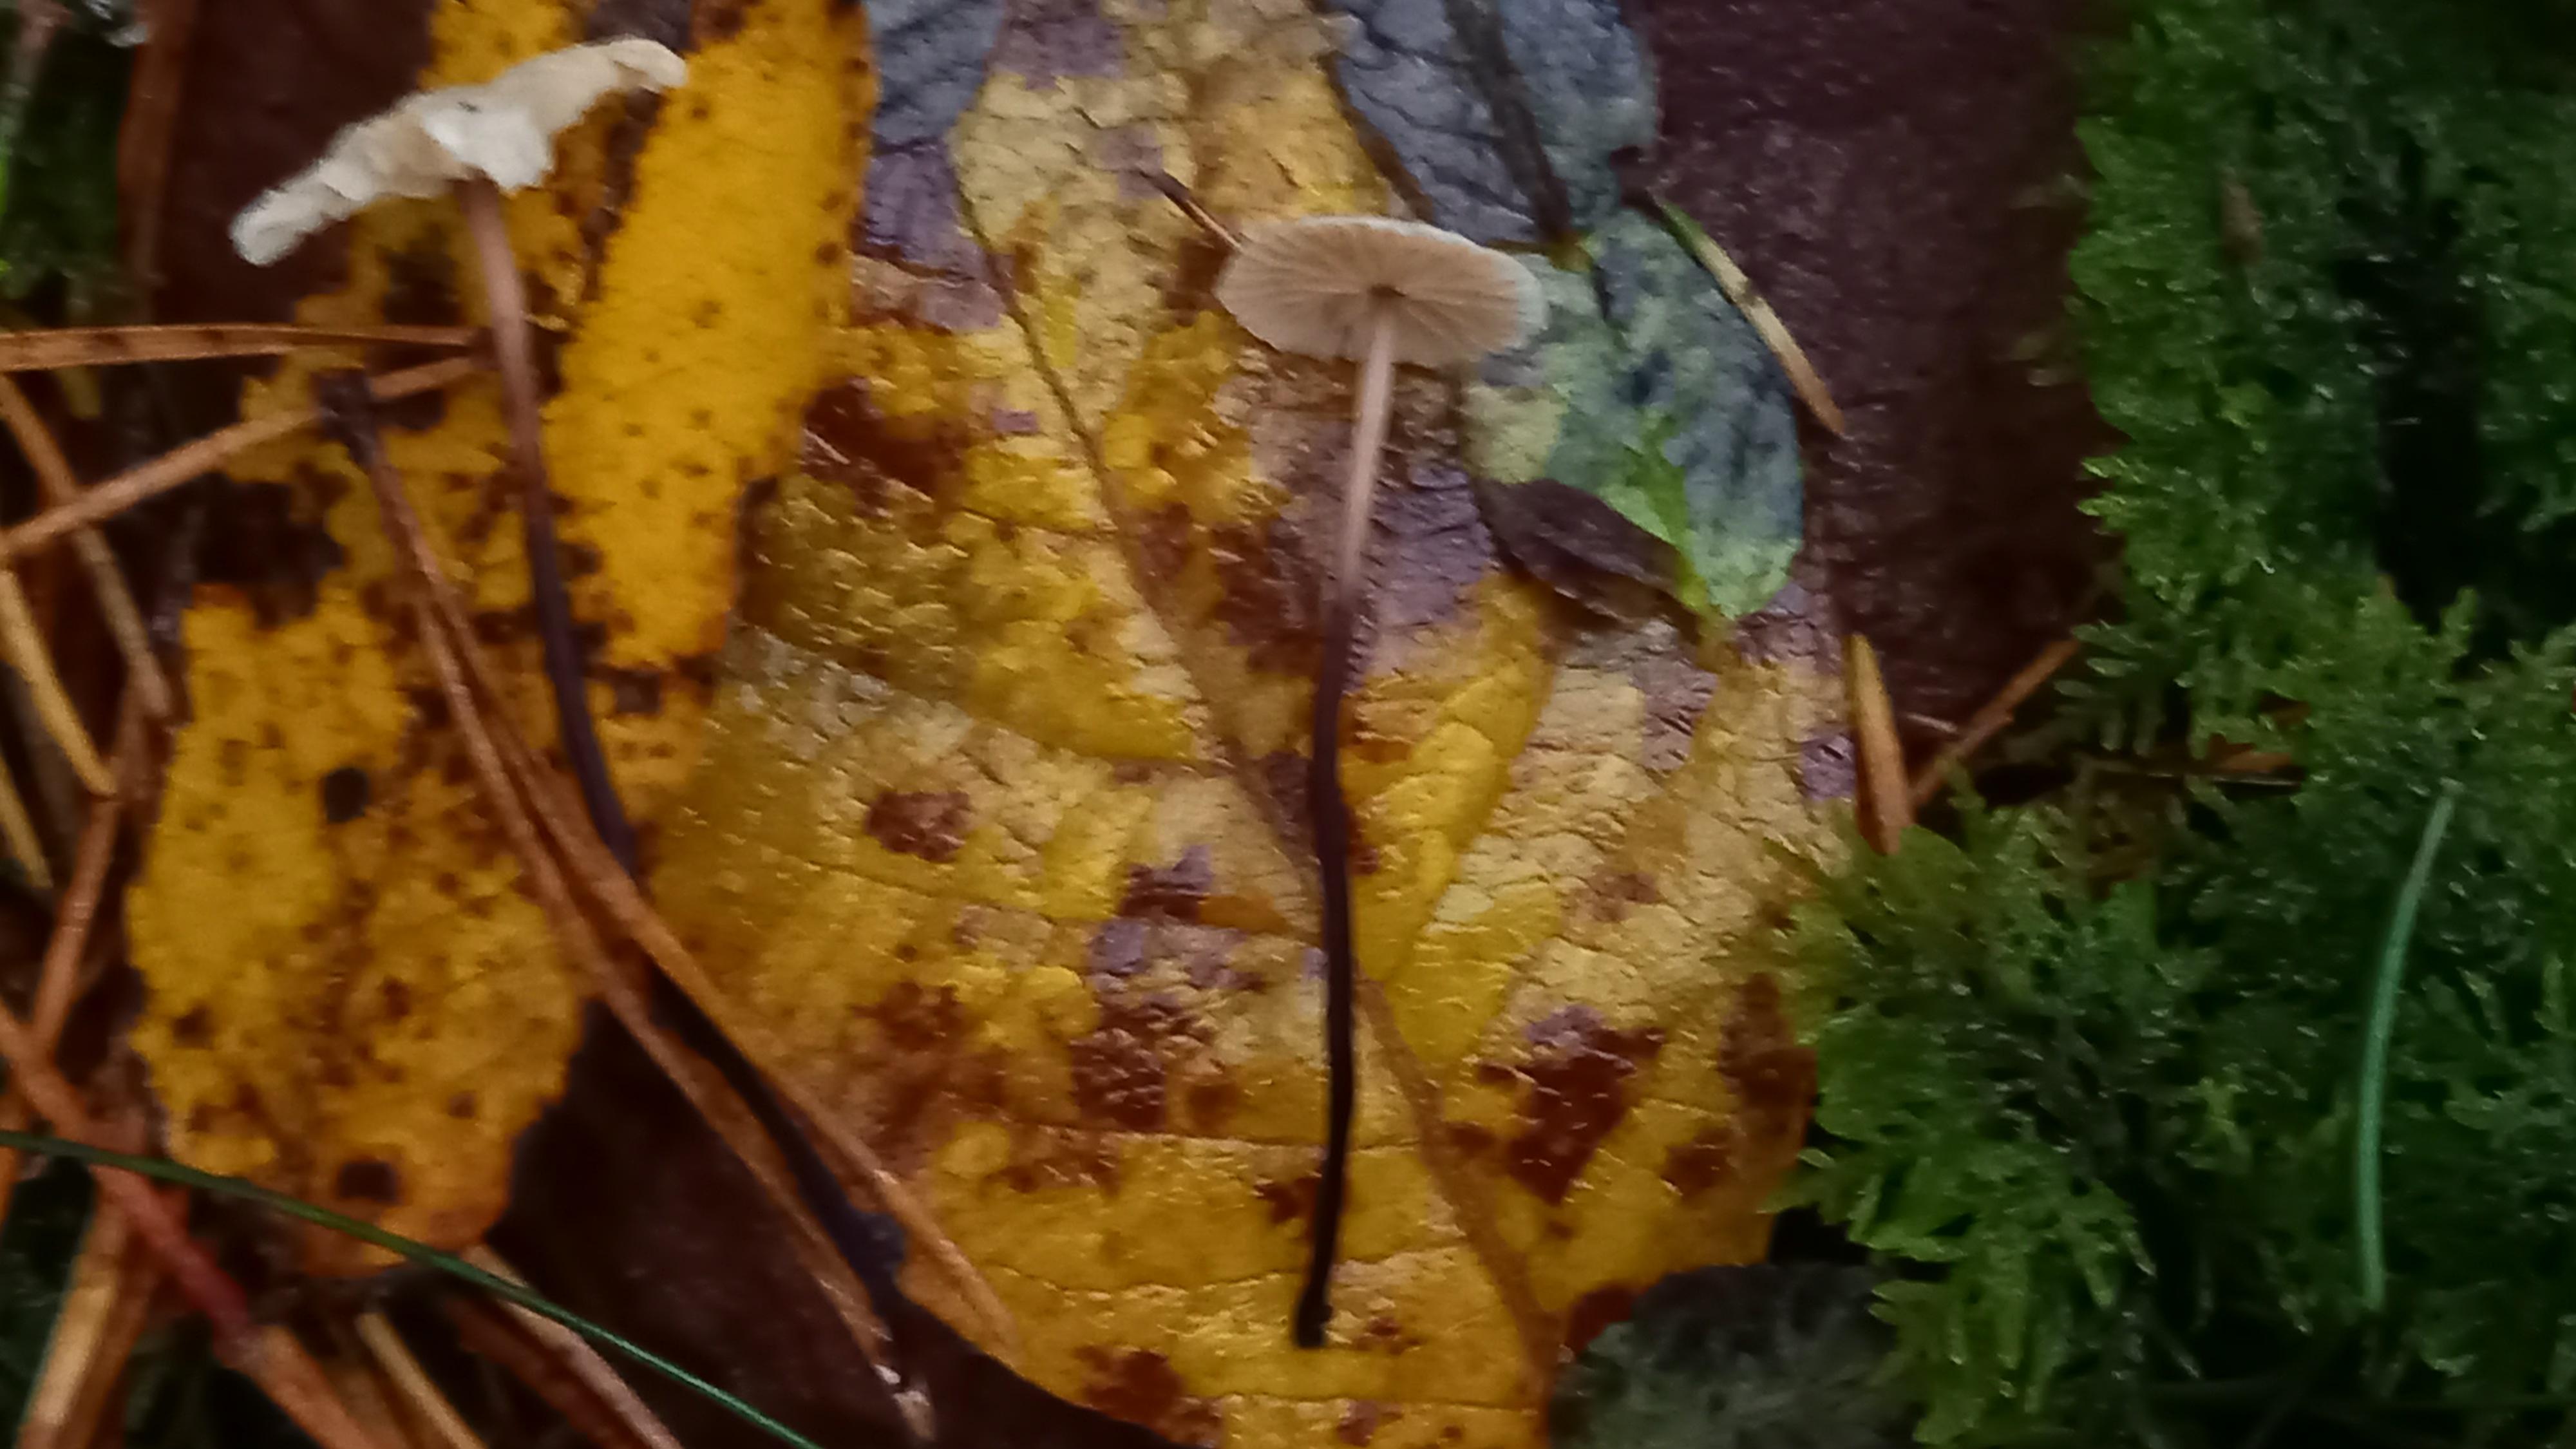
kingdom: Fungi
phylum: Basidiomycota
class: Agaricomycetes
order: Agaricales
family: Omphalotaceae
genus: Paragymnopus
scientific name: Paragymnopus perforans
